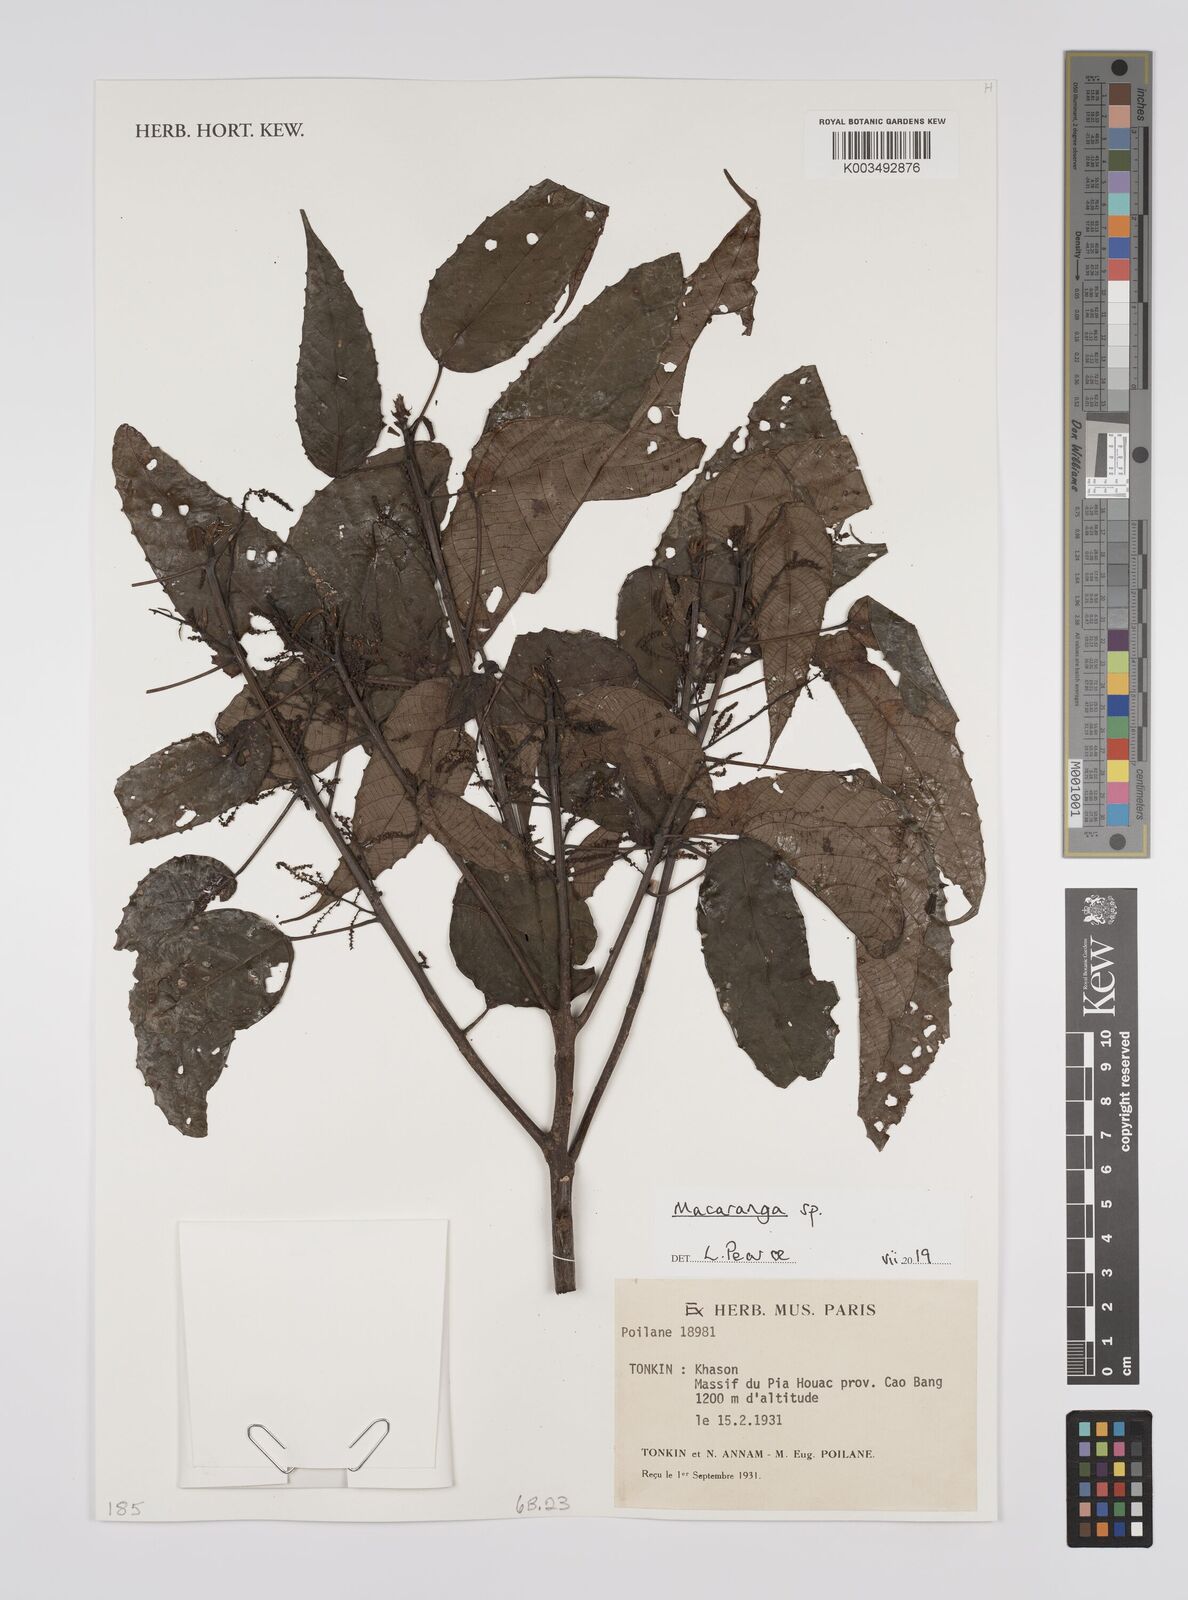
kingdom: Plantae
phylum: Tracheophyta
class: Magnoliopsida
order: Malpighiales
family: Euphorbiaceae
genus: Macaranga
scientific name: Macaranga
